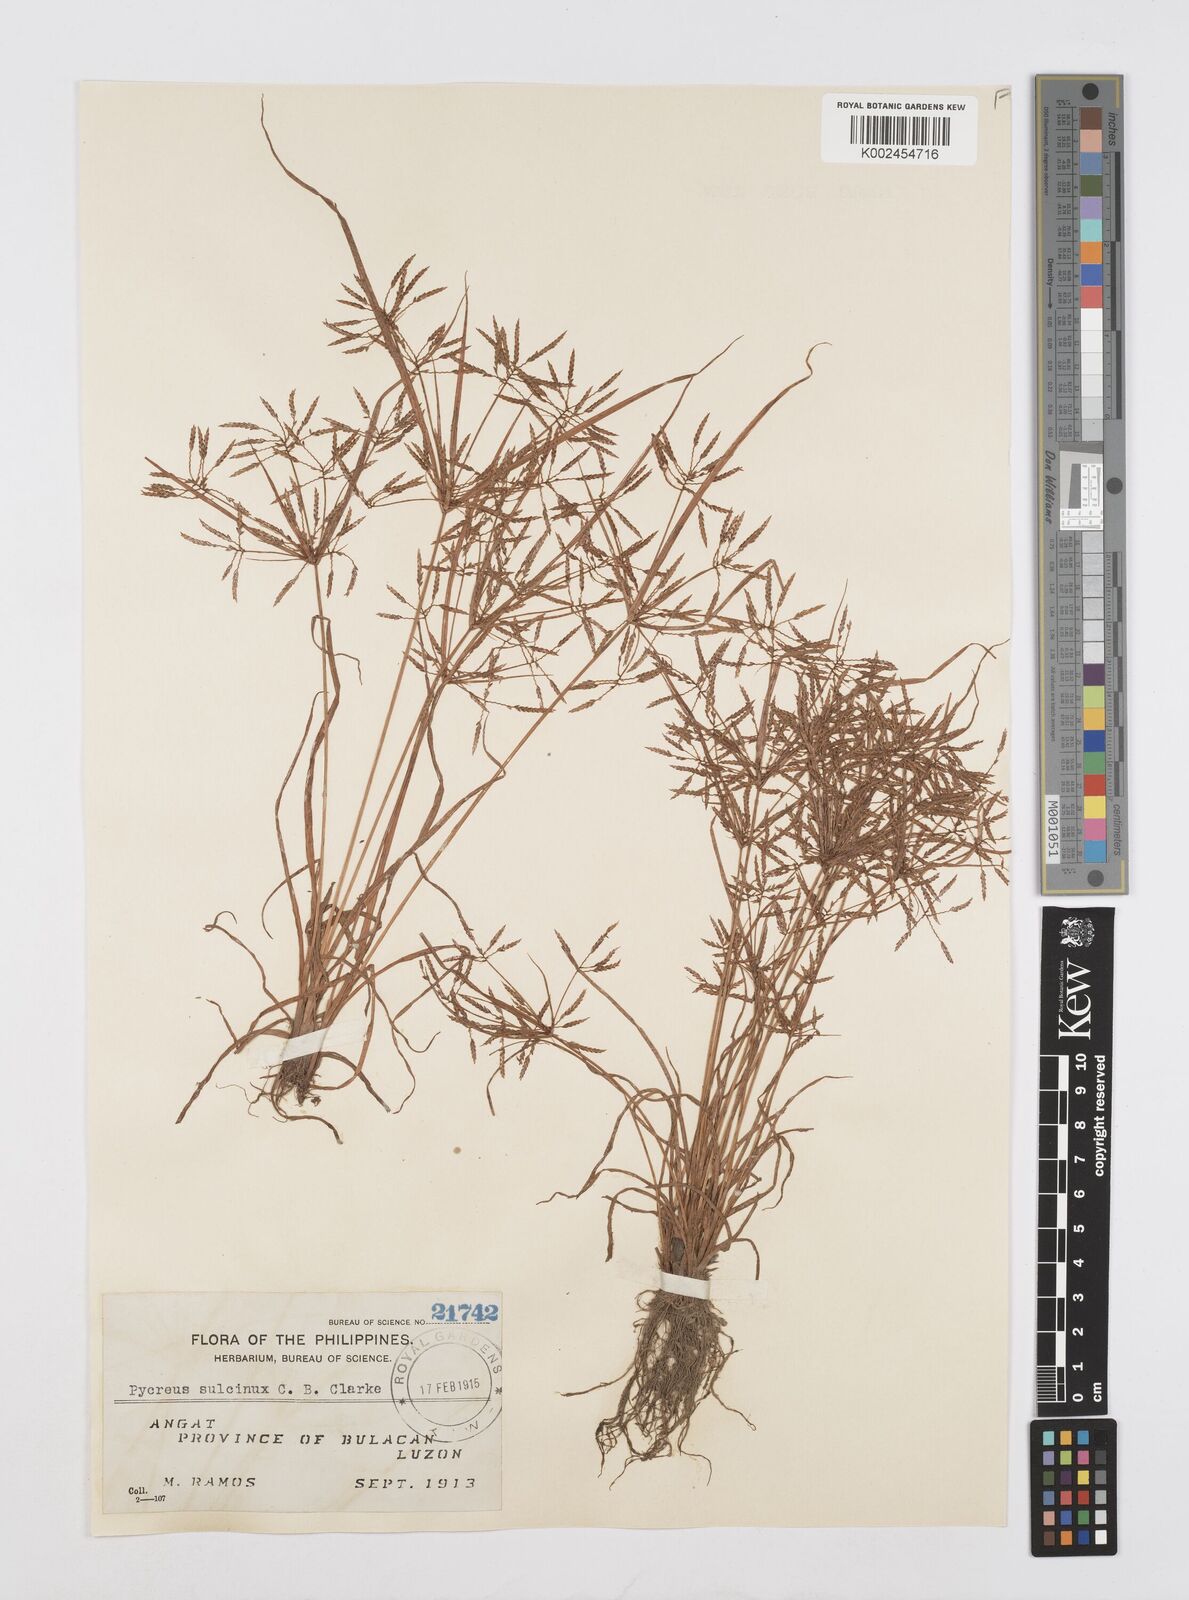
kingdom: Plantae
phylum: Tracheophyta
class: Liliopsida
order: Poales
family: Cyperaceae
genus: Cyperus
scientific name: Cyperus sulcinux
